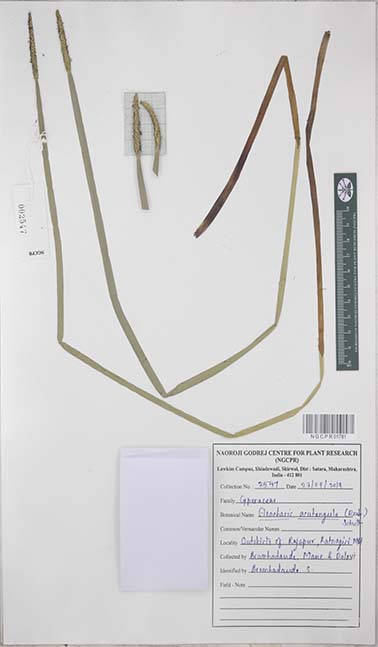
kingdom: Plantae
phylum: Tracheophyta
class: Liliopsida
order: Poales
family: Cyperaceae
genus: Eleocharis
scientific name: Eleocharis acutangula
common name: Acute spikerush
